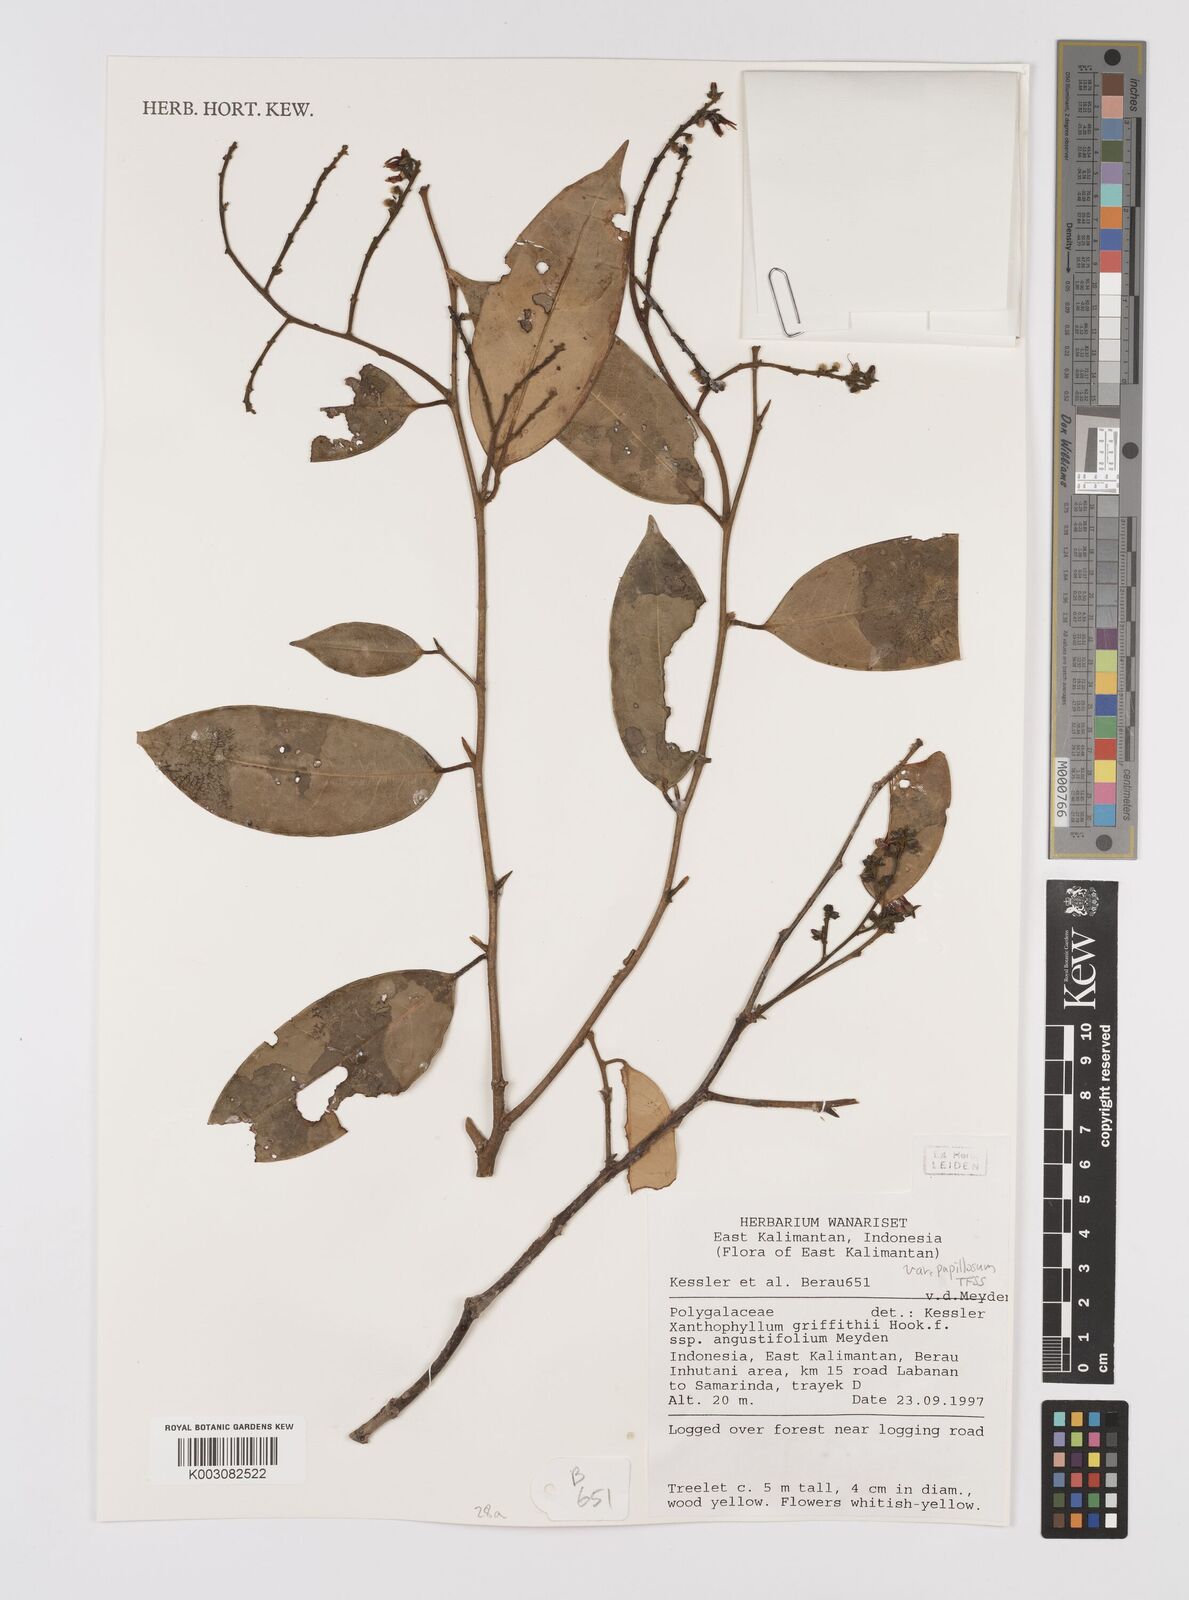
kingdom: Plantae
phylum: Tracheophyta
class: Magnoliopsida
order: Fabales
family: Polygalaceae
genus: Xanthophyllum
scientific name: Xanthophyllum griffithii
